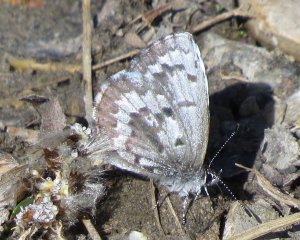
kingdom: Animalia
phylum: Arthropoda
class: Insecta
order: Lepidoptera
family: Lycaenidae
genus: Celastrina
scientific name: Celastrina lucia
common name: Northern Spring Azure
